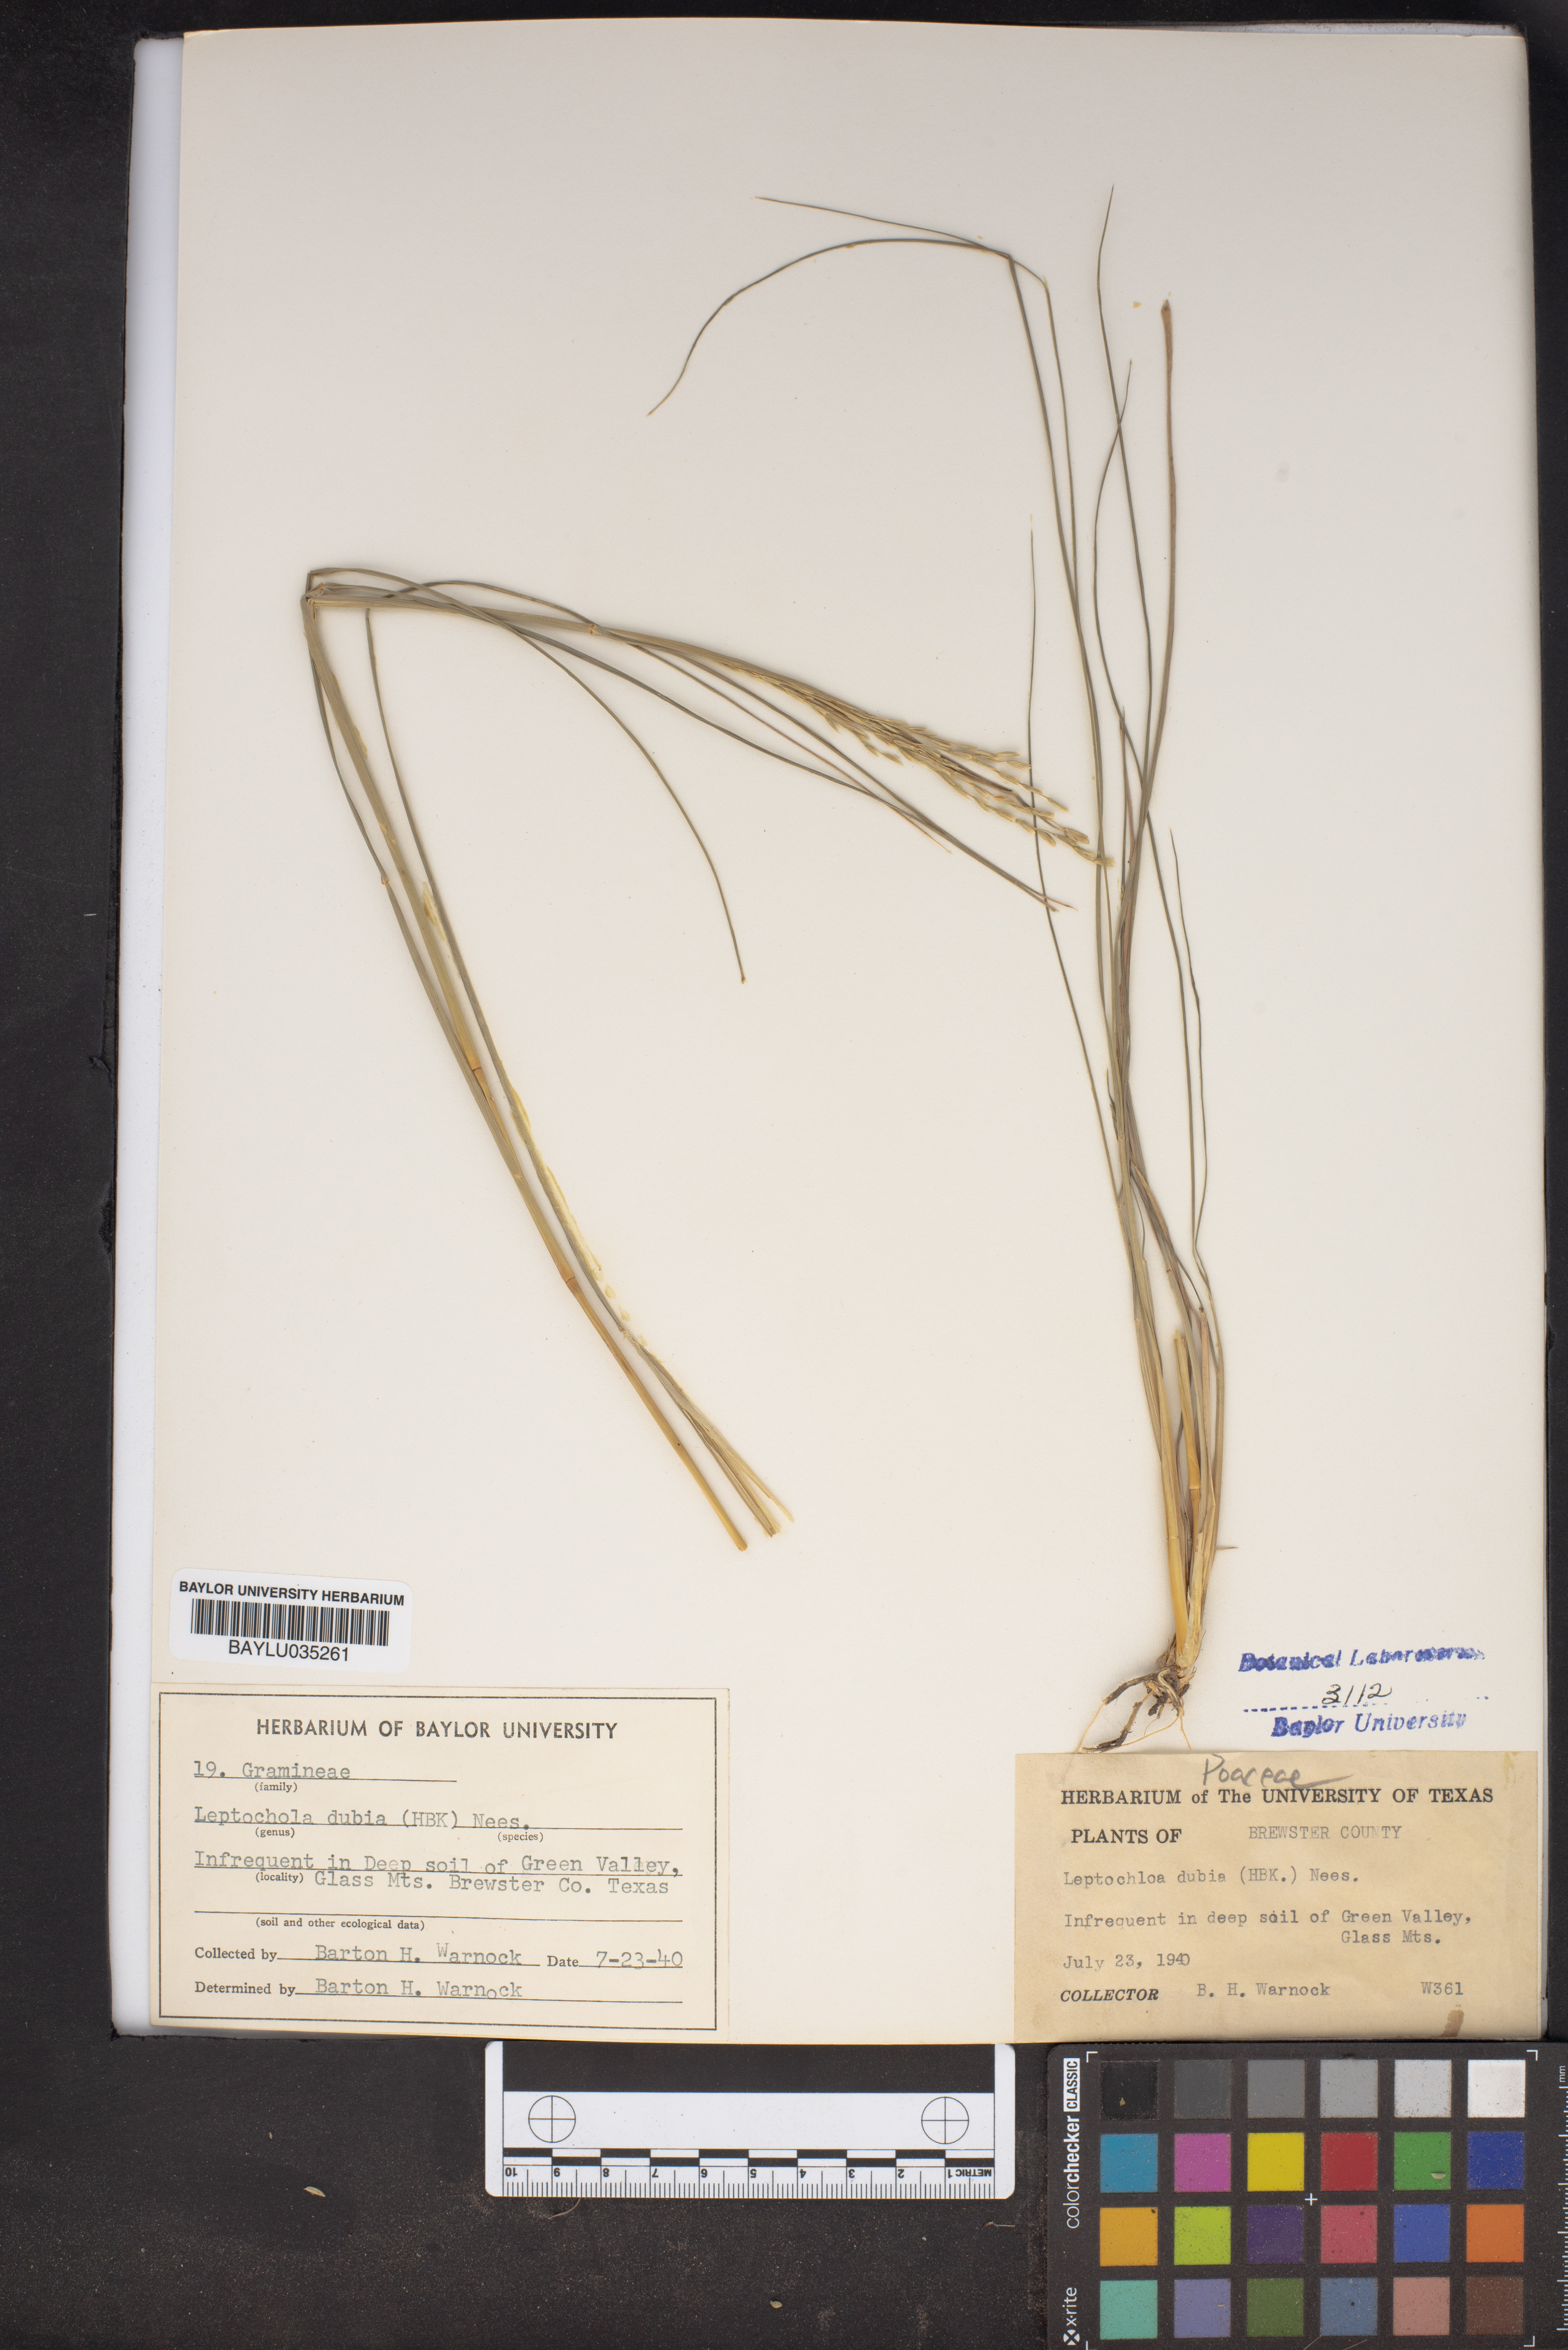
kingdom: Plantae
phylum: Tracheophyta
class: Liliopsida
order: Poales
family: Poaceae
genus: Disakisperma
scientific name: Disakisperma dubium
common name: Green sprangletop
